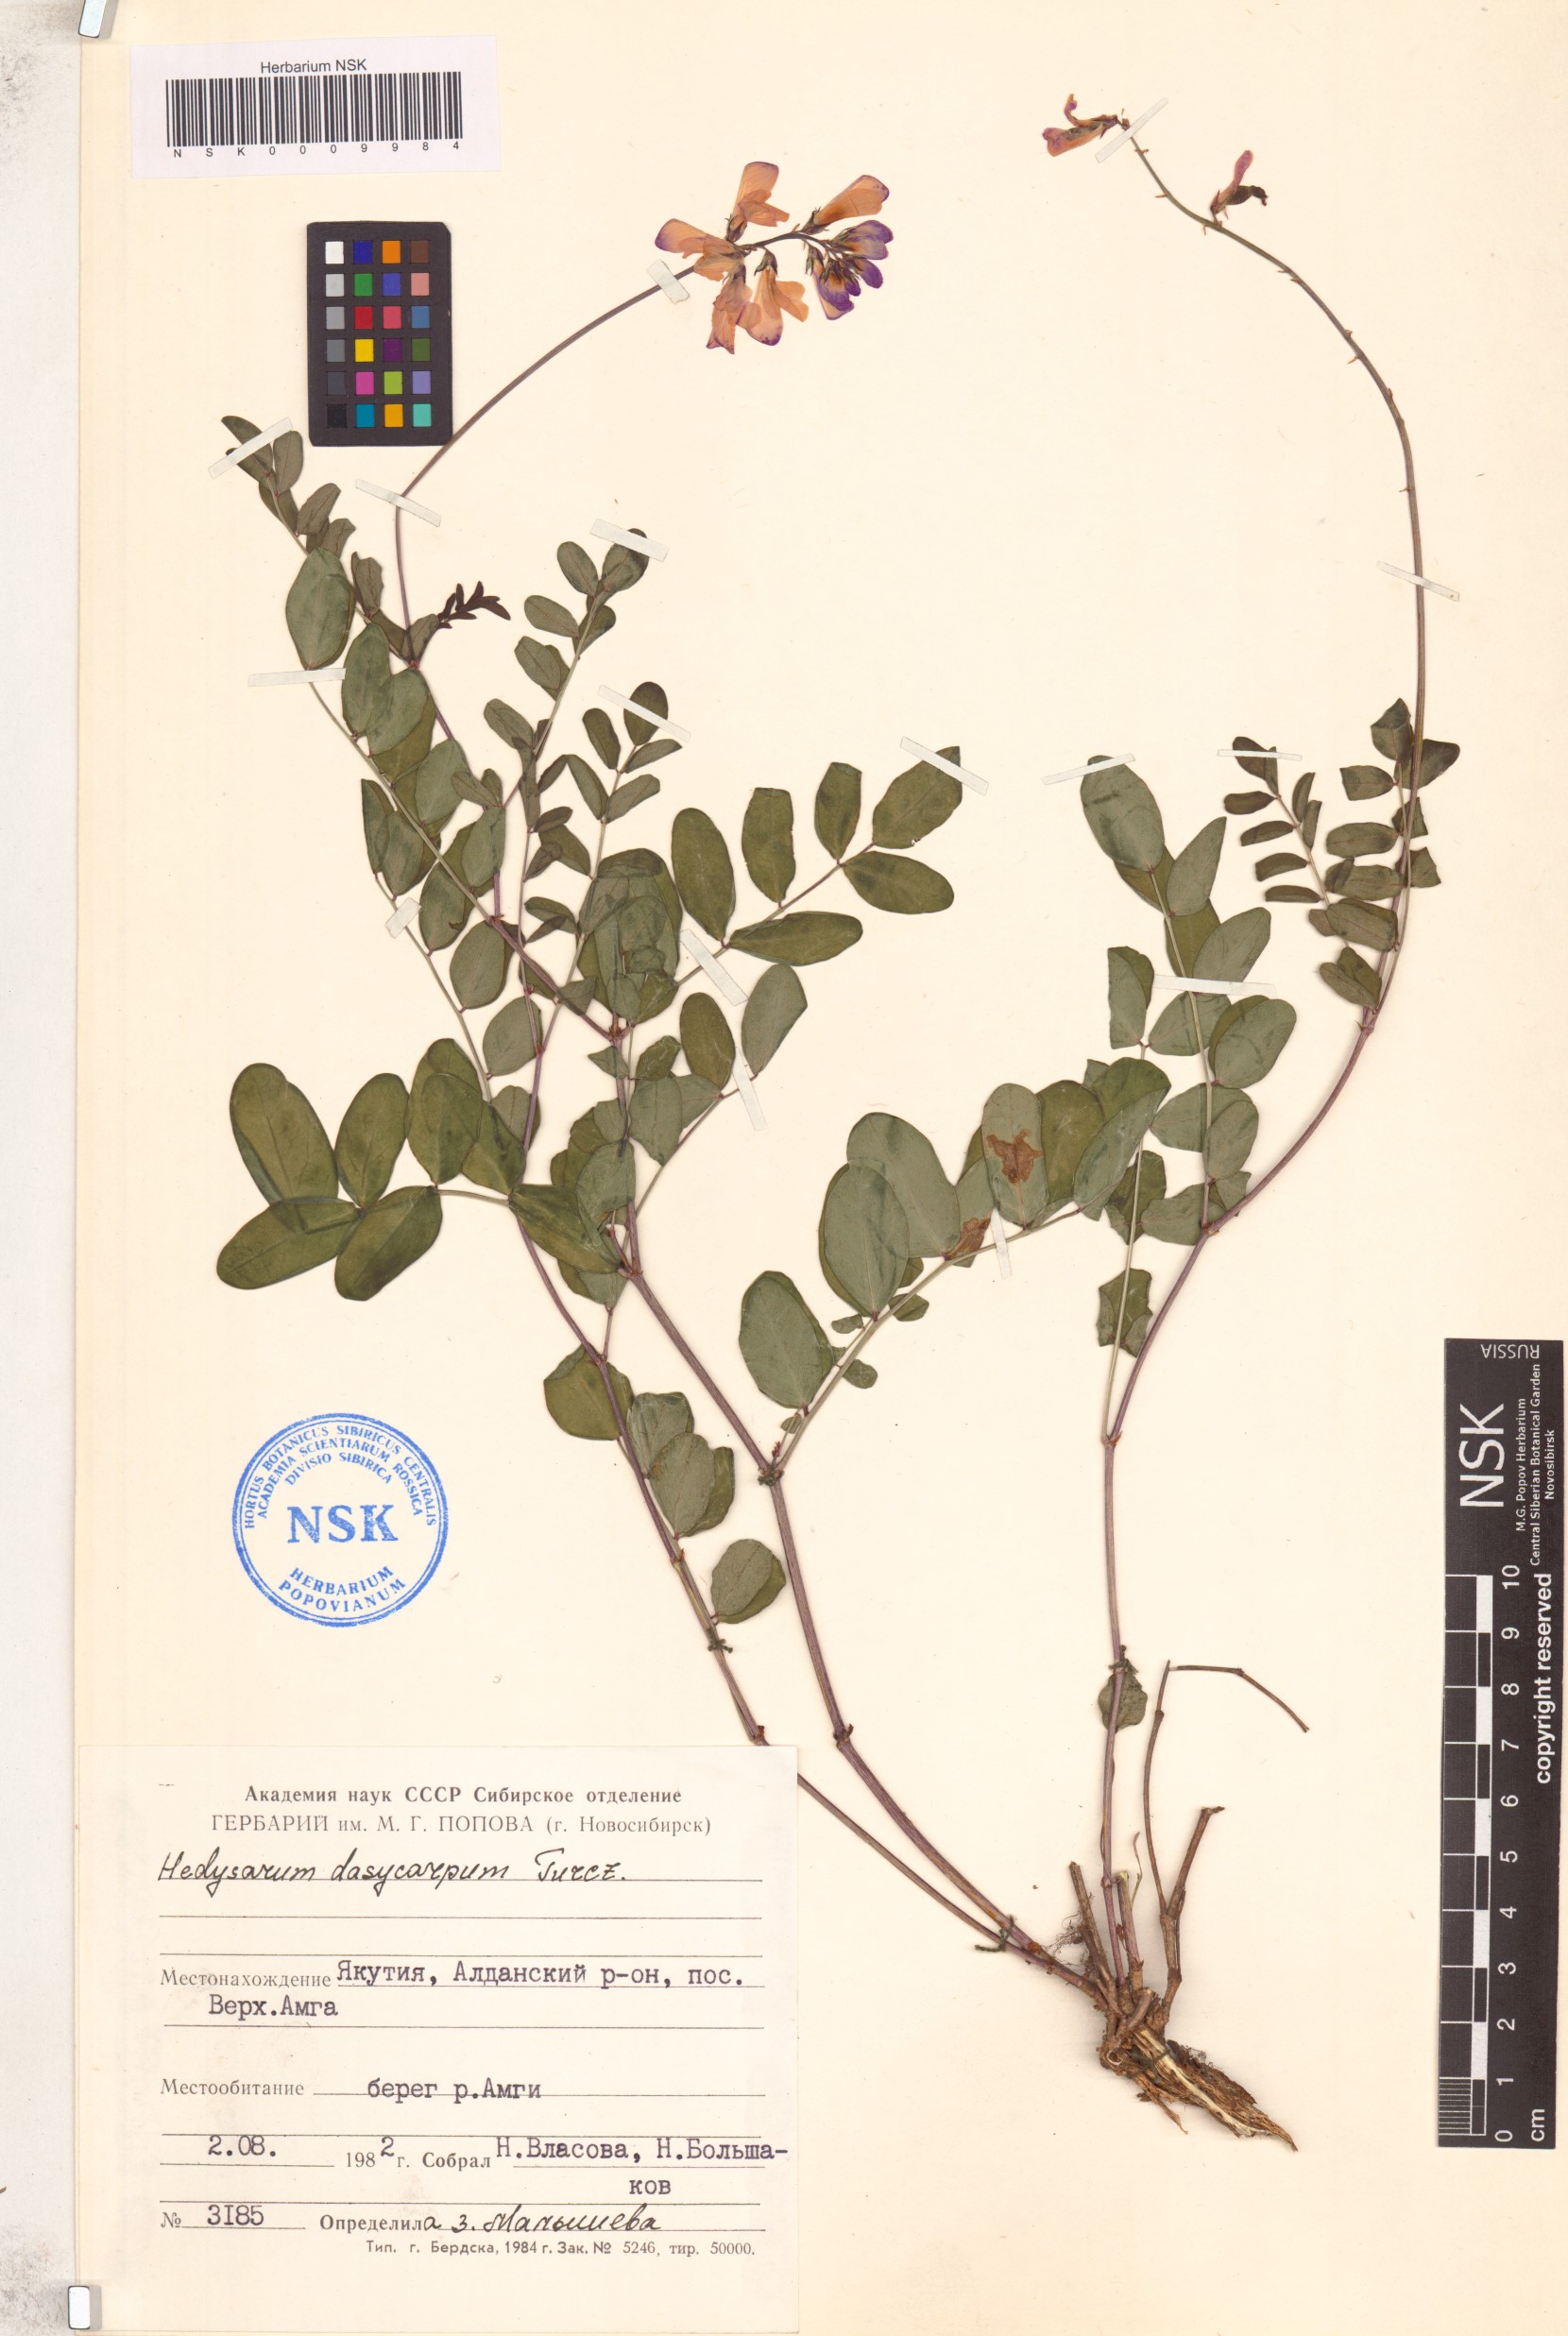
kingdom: Plantae
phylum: Tracheophyta
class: Magnoliopsida
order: Fabales
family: Fabaceae
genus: Hedysarum
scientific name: Hedysarum dasycarpum
